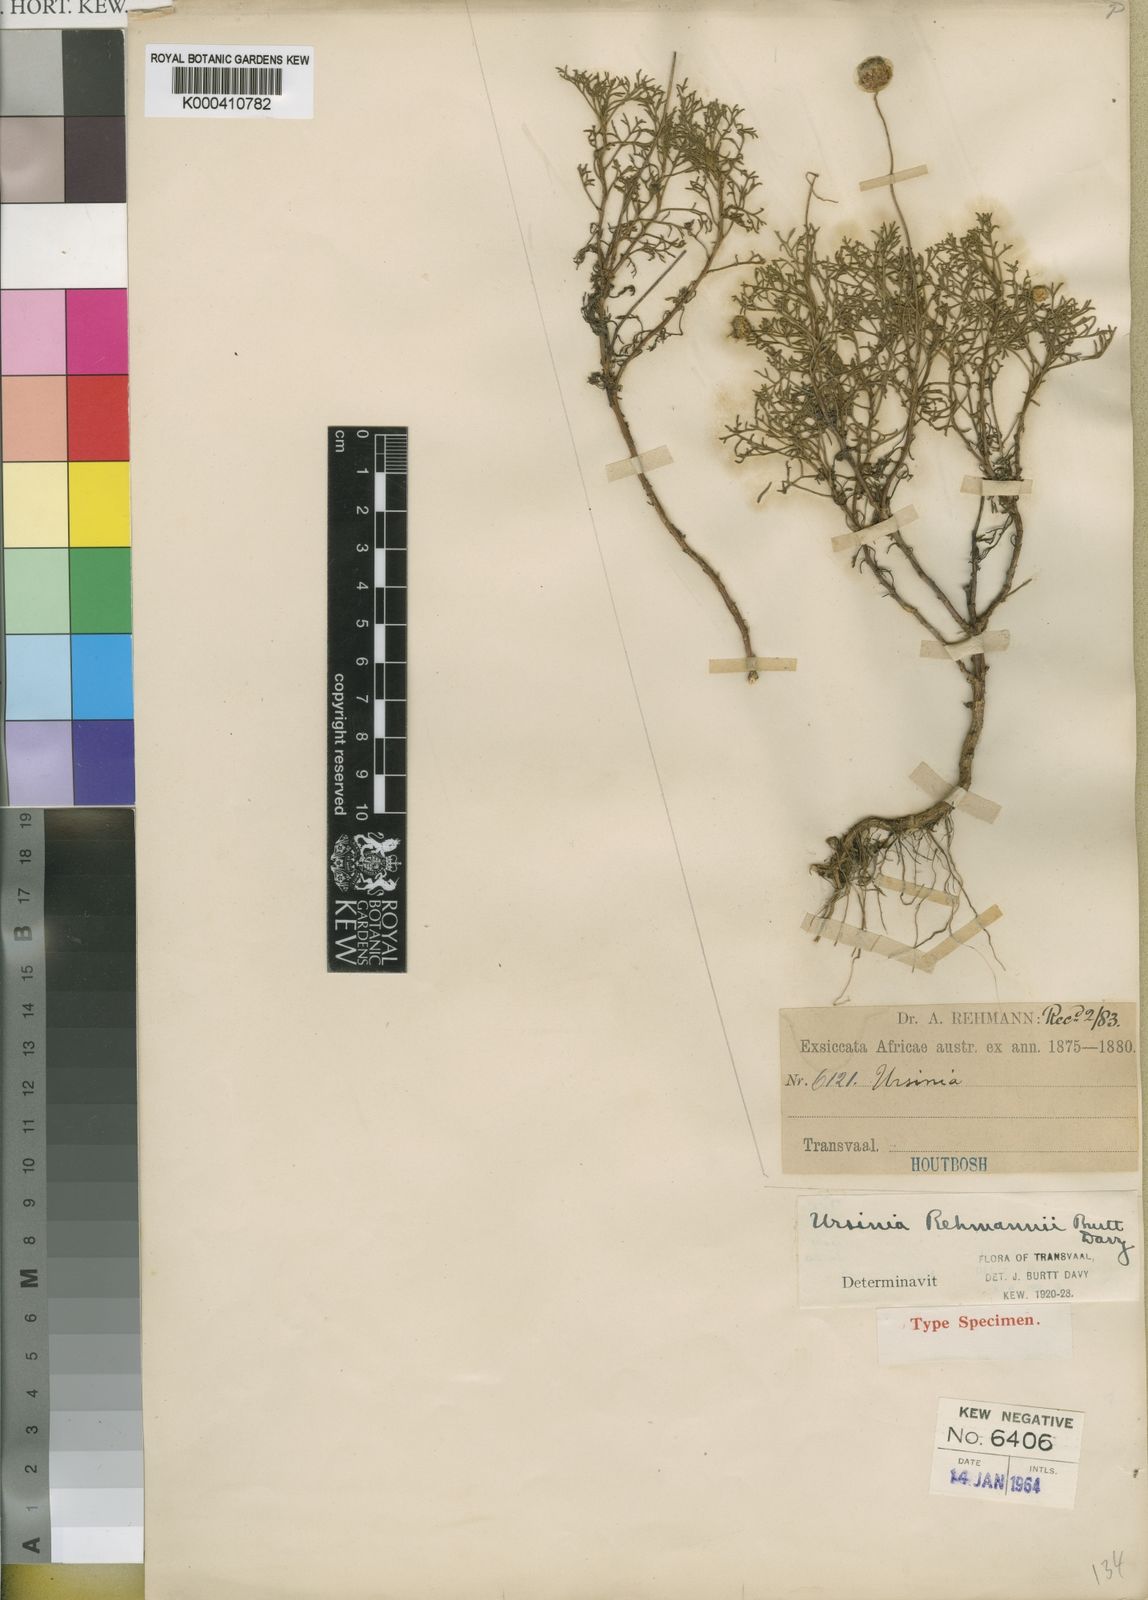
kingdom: Plantae
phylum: Tracheophyta
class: Magnoliopsida
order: Asterales
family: Asteraceae
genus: Ursinia
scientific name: Ursinia
